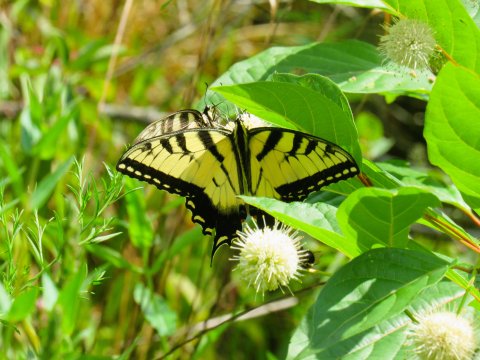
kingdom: Animalia
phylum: Arthropoda
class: Insecta
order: Lepidoptera
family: Papilionidae
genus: Pterourus
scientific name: Pterourus glaucus
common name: Eastern Tiger Swallowtail
